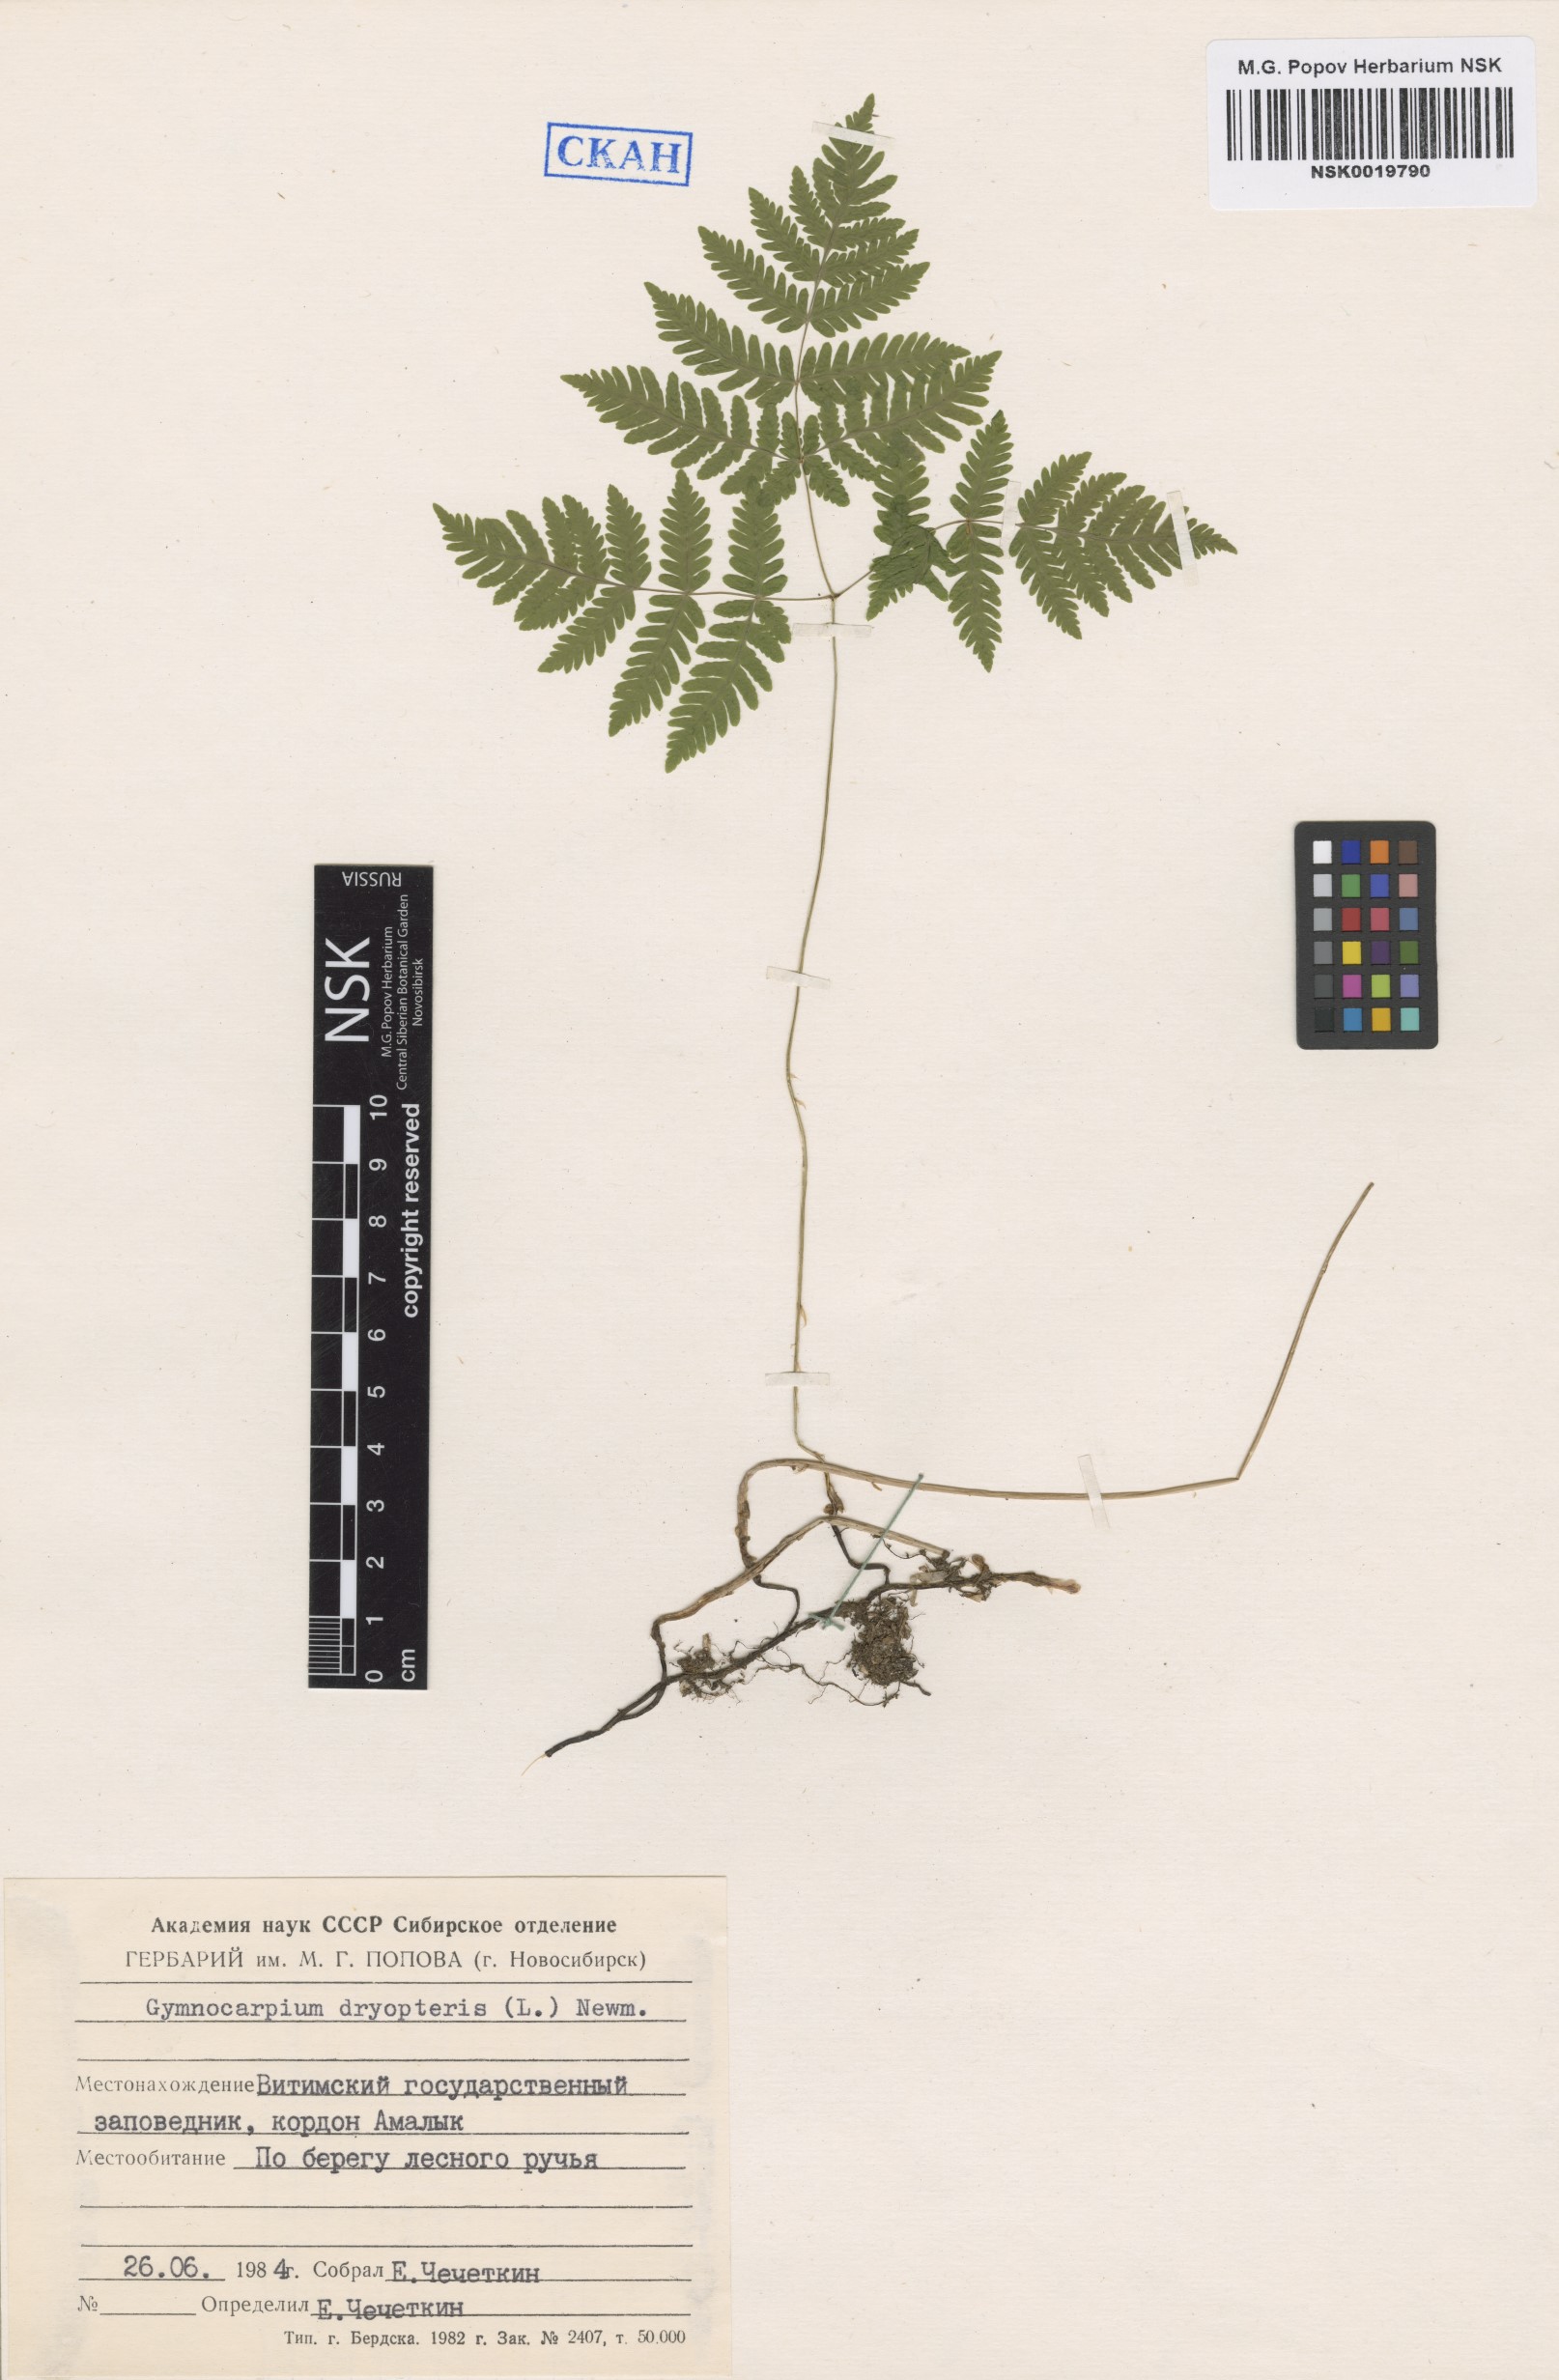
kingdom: Plantae
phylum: Tracheophyta
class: Polypodiopsida
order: Polypodiales
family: Cystopteridaceae
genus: Gymnocarpium
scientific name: Gymnocarpium dryopteris
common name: Oak fern
